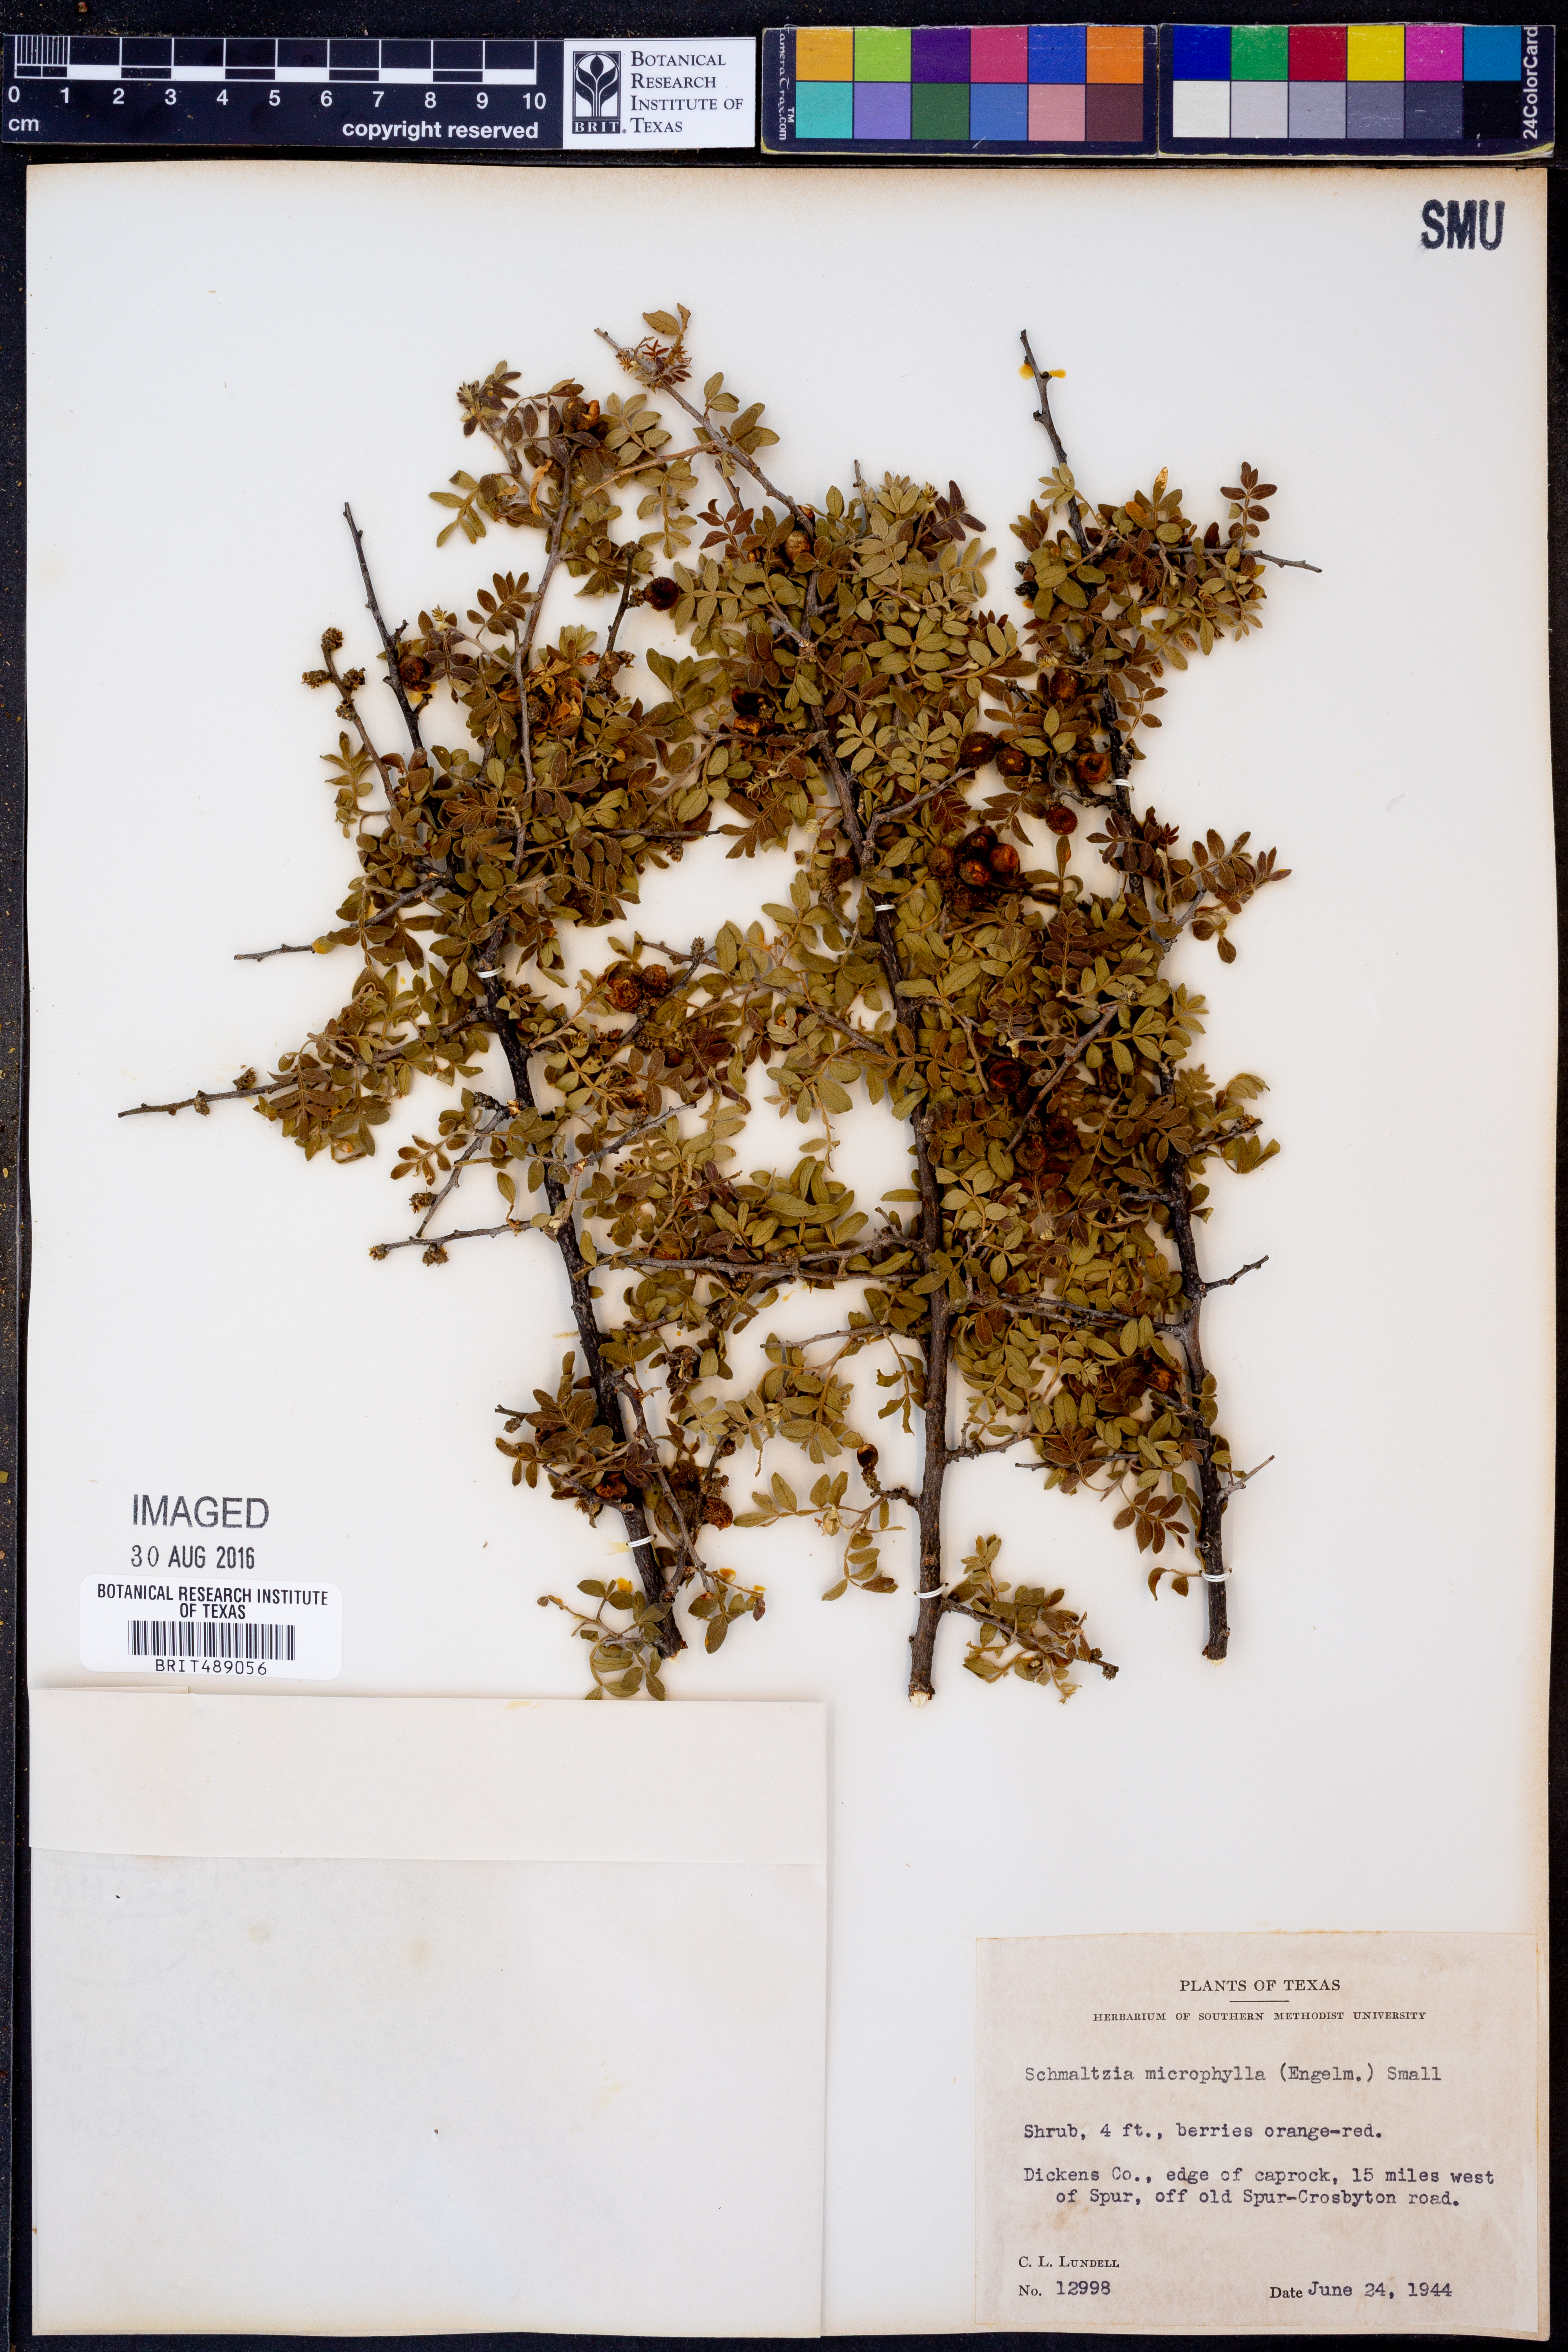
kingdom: Plantae
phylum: Tracheophyta
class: Magnoliopsida
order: Sapindales
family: Anacardiaceae
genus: Rhus
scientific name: Rhus microphylla
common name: Desert sumac
